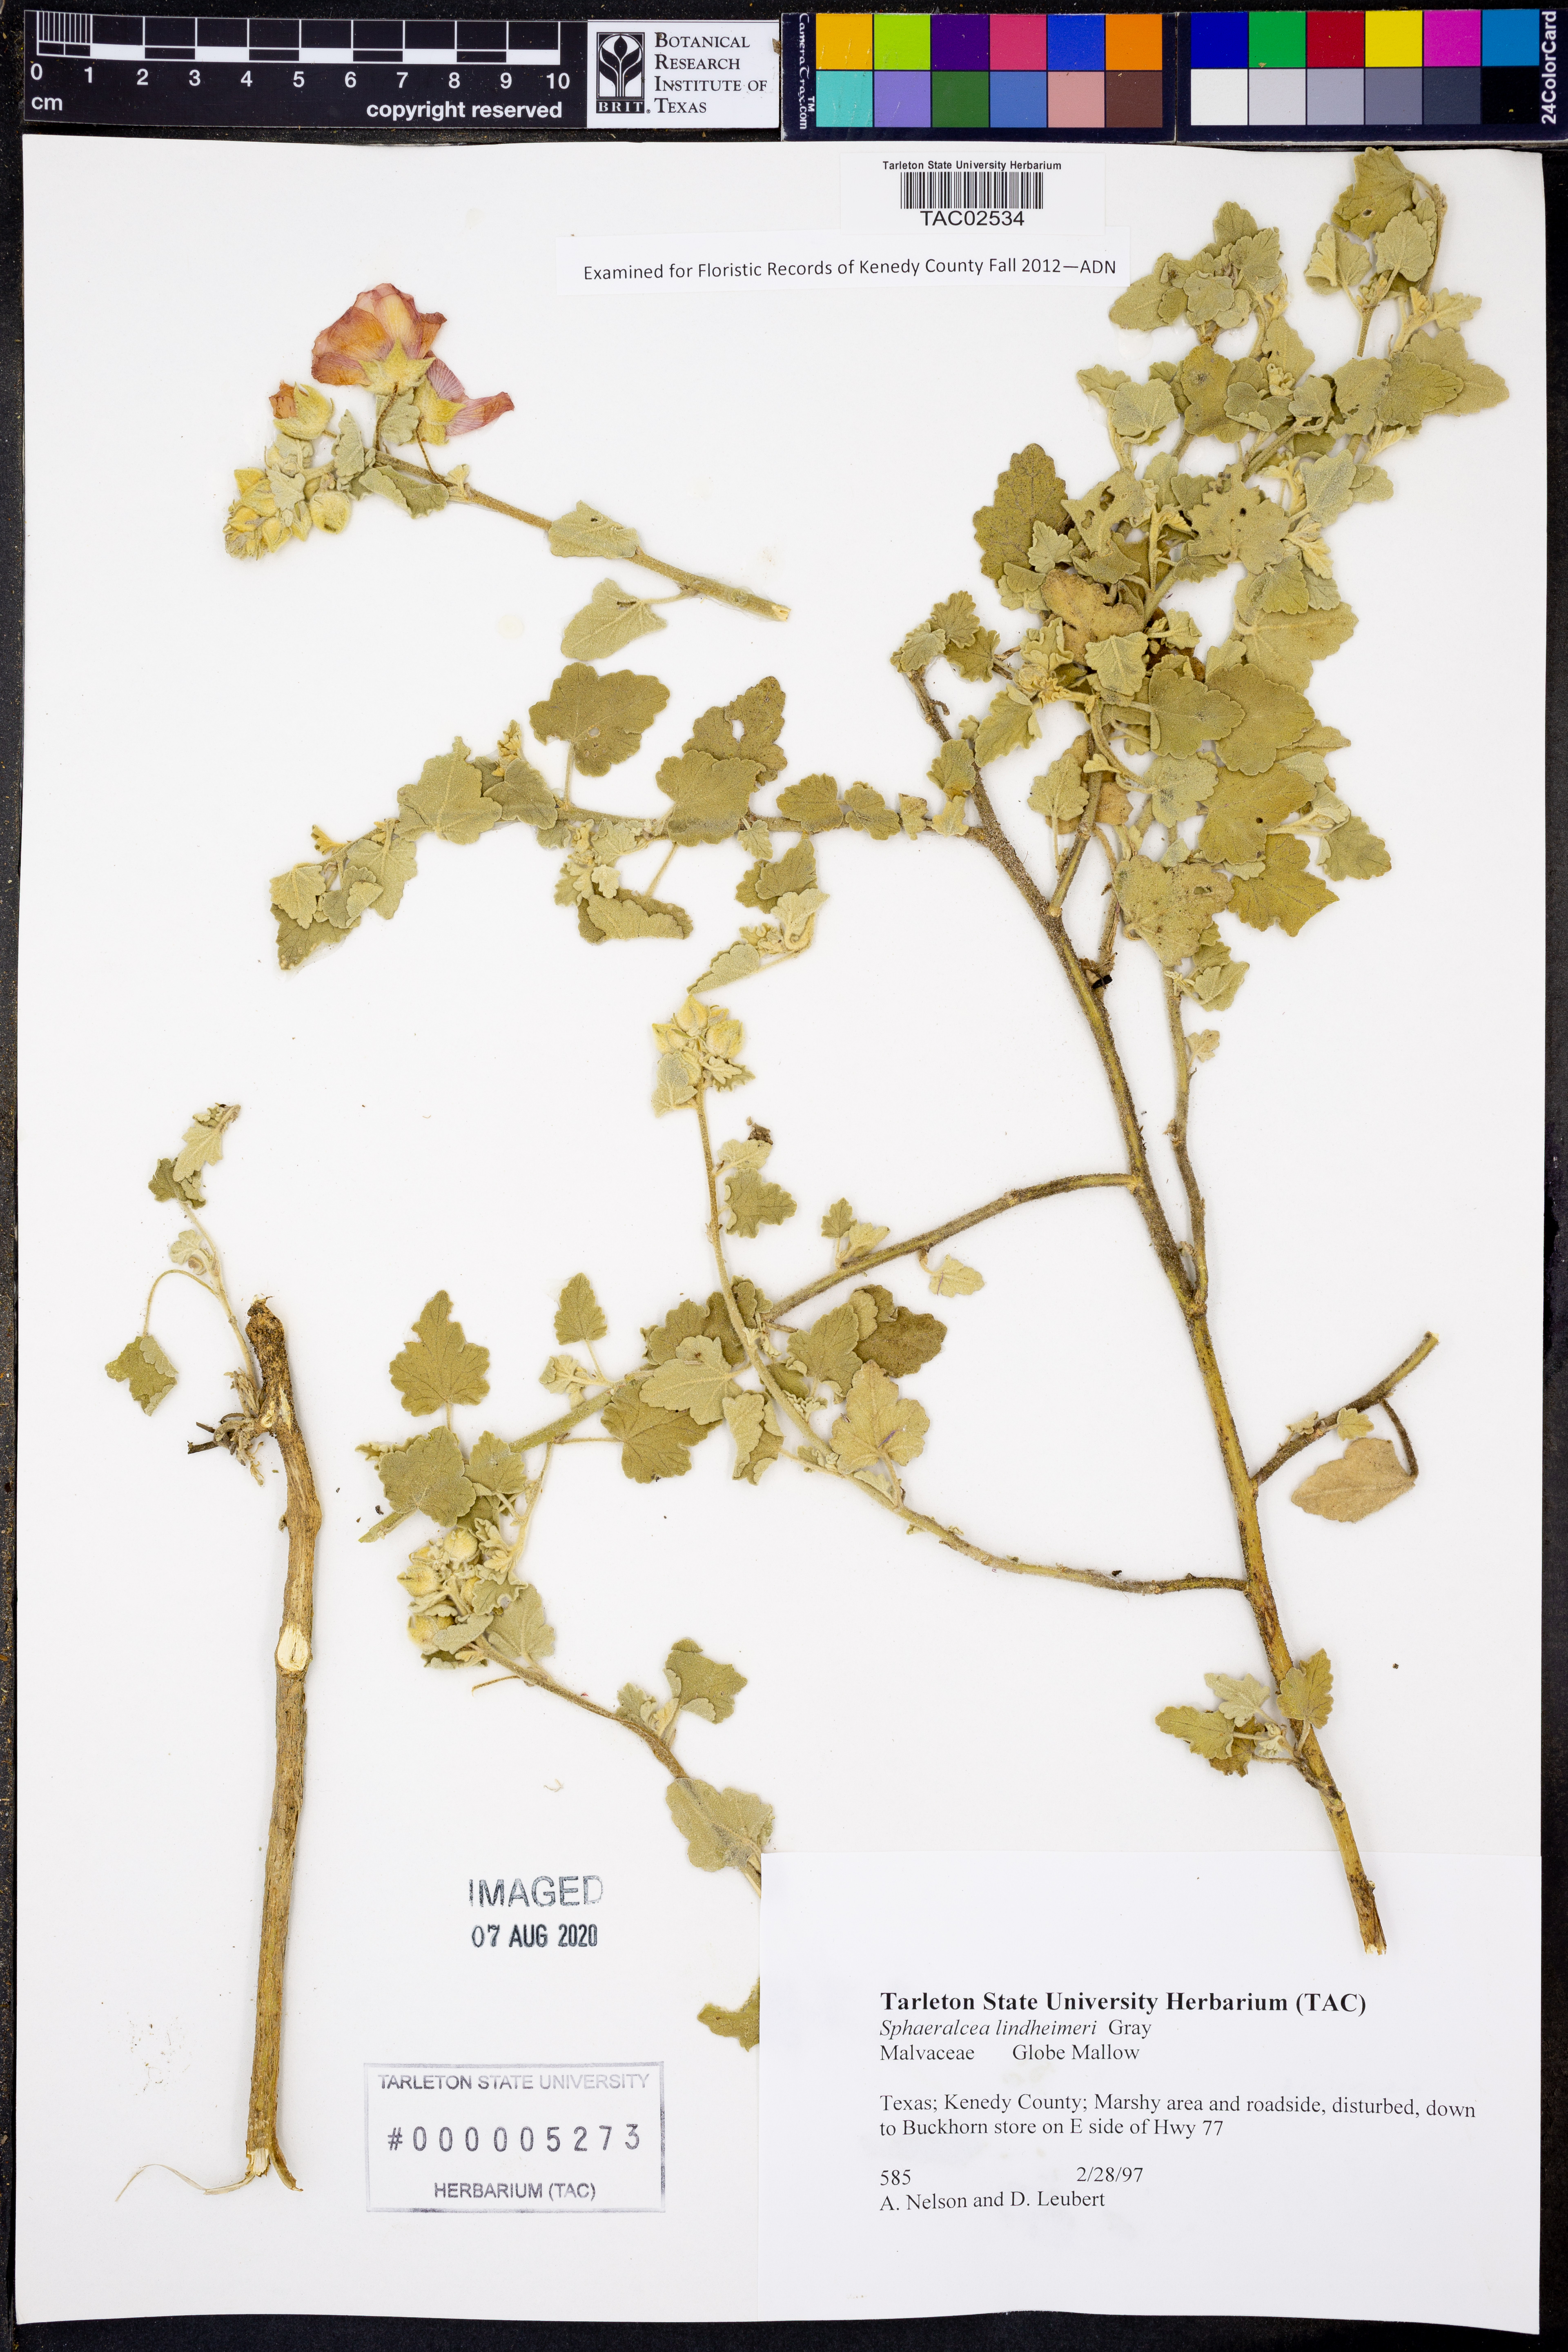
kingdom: Plantae
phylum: Tracheophyta
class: Magnoliopsida
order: Malvales
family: Malvaceae
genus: Sphaeralcea
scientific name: Sphaeralcea lindheimeri
